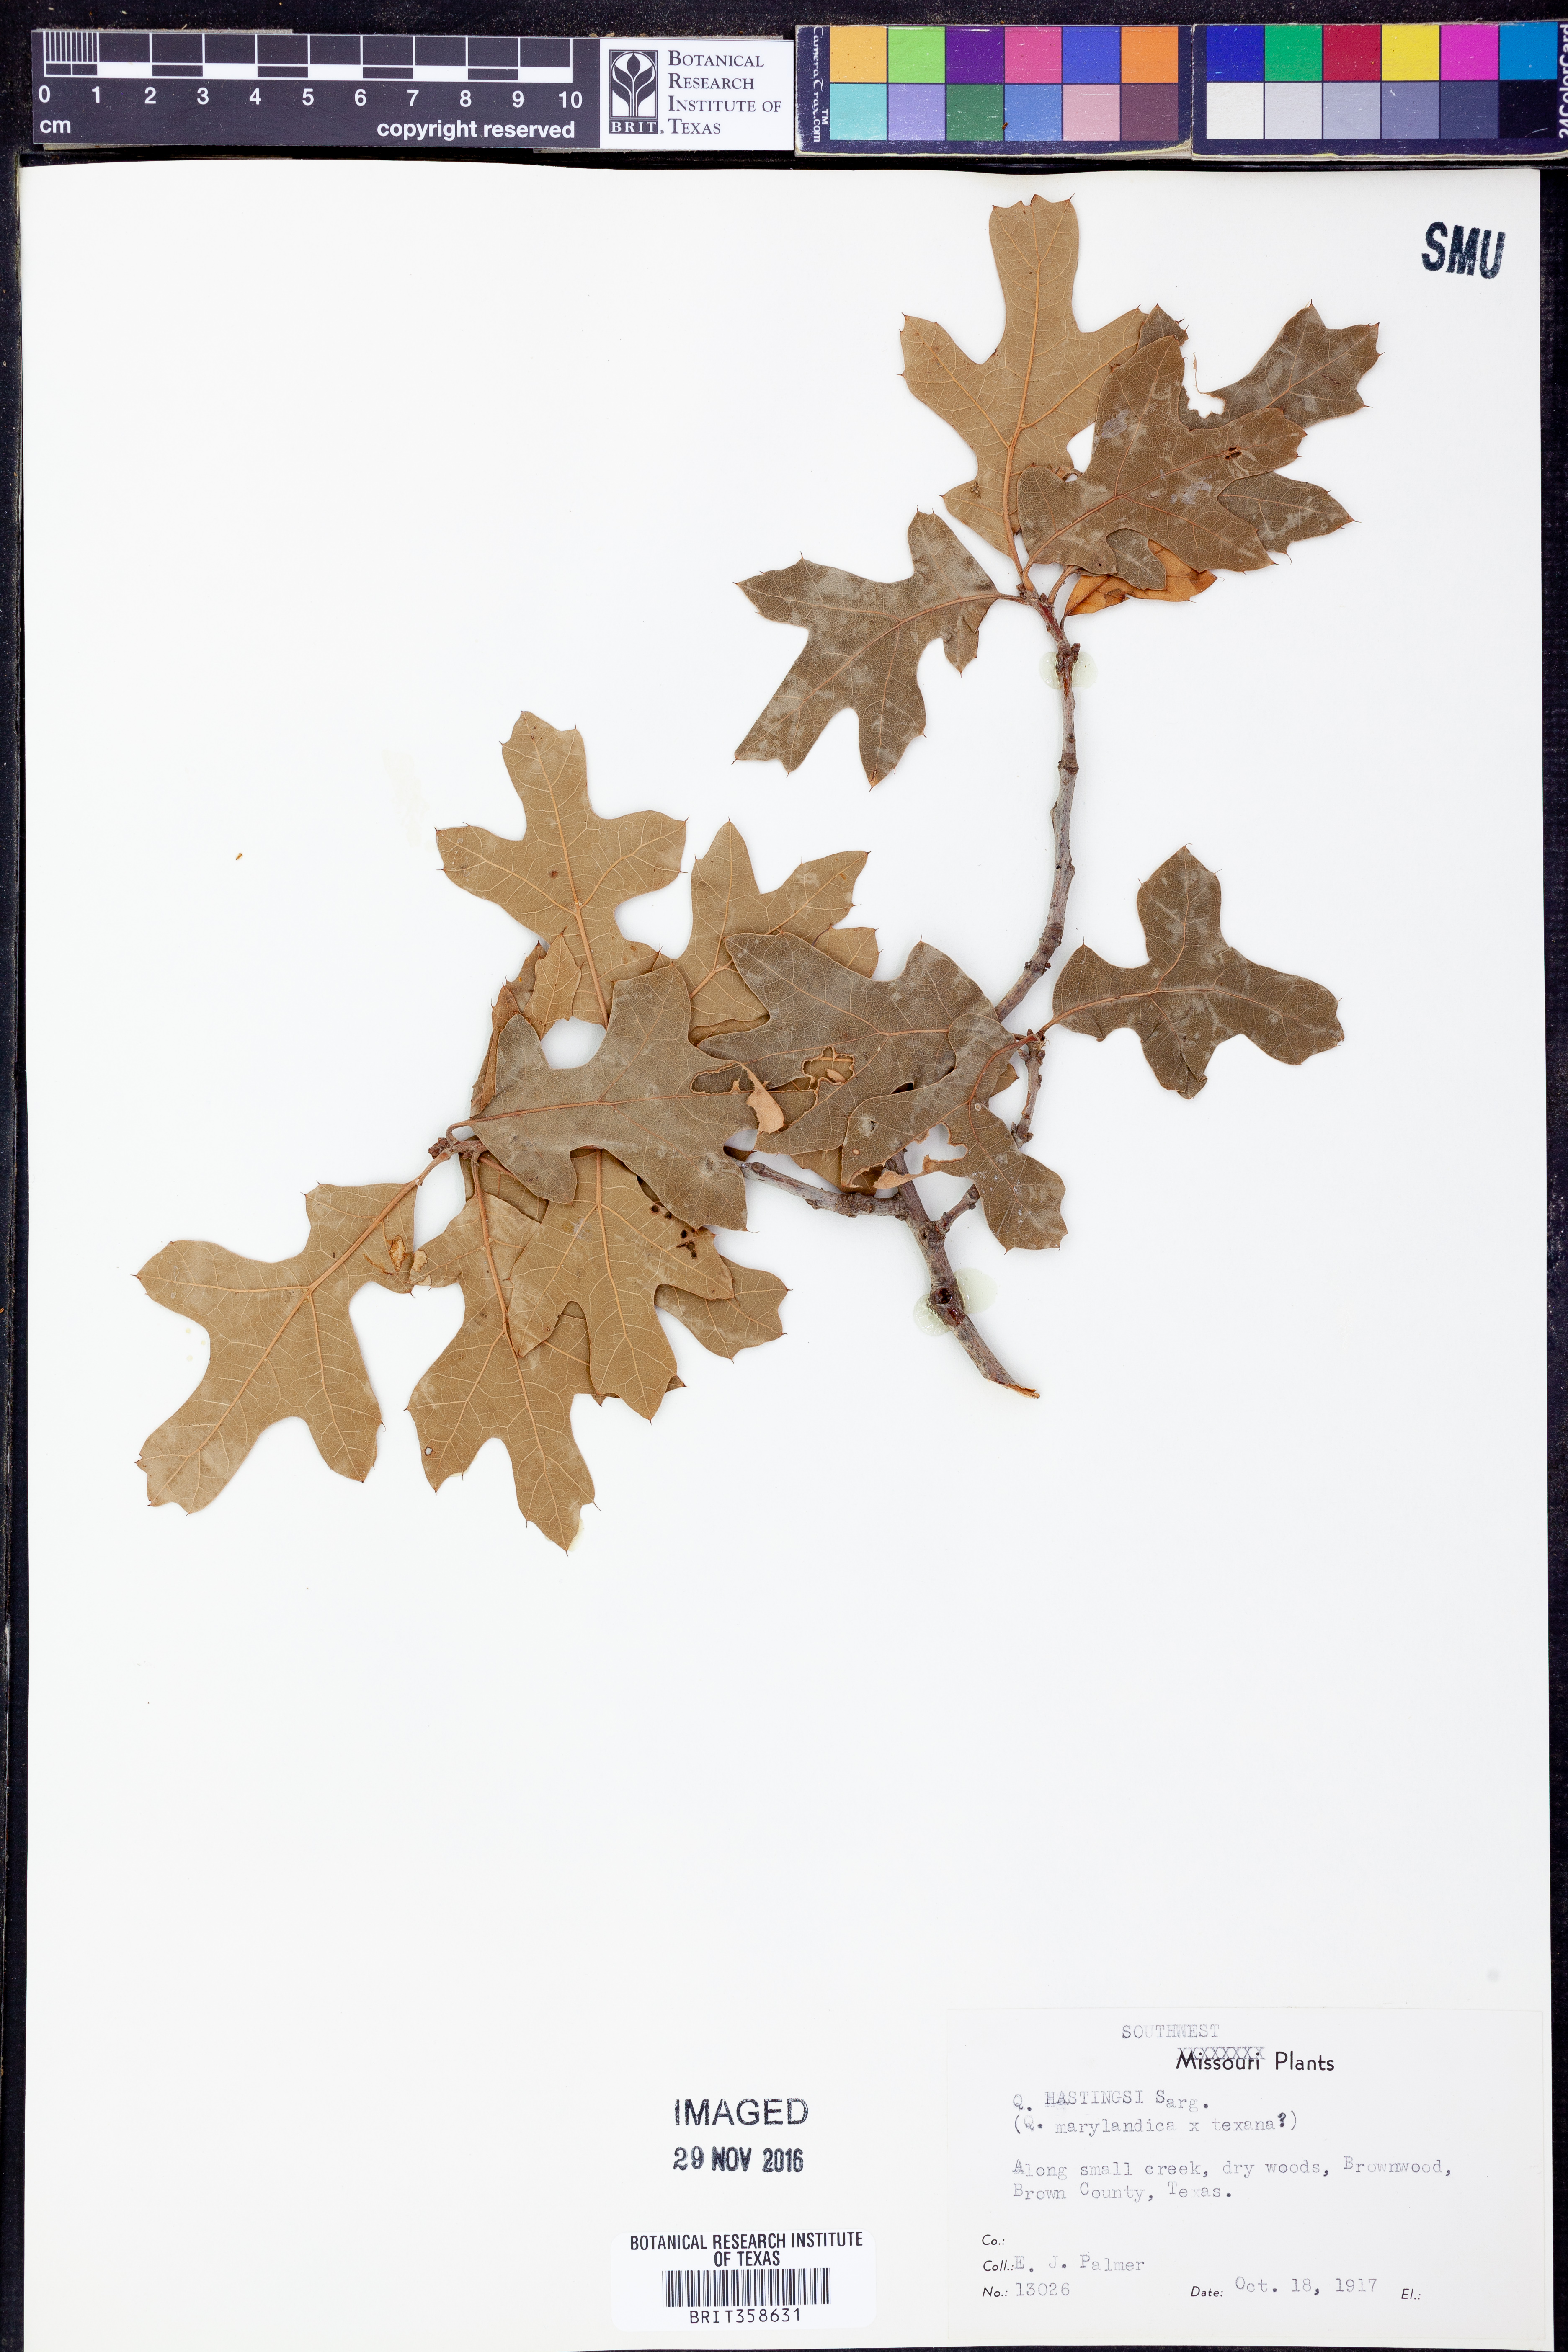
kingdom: Plantae
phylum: Tracheophyta
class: Magnoliopsida
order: Fagales
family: Fagaceae
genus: Quercus
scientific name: Quercus
